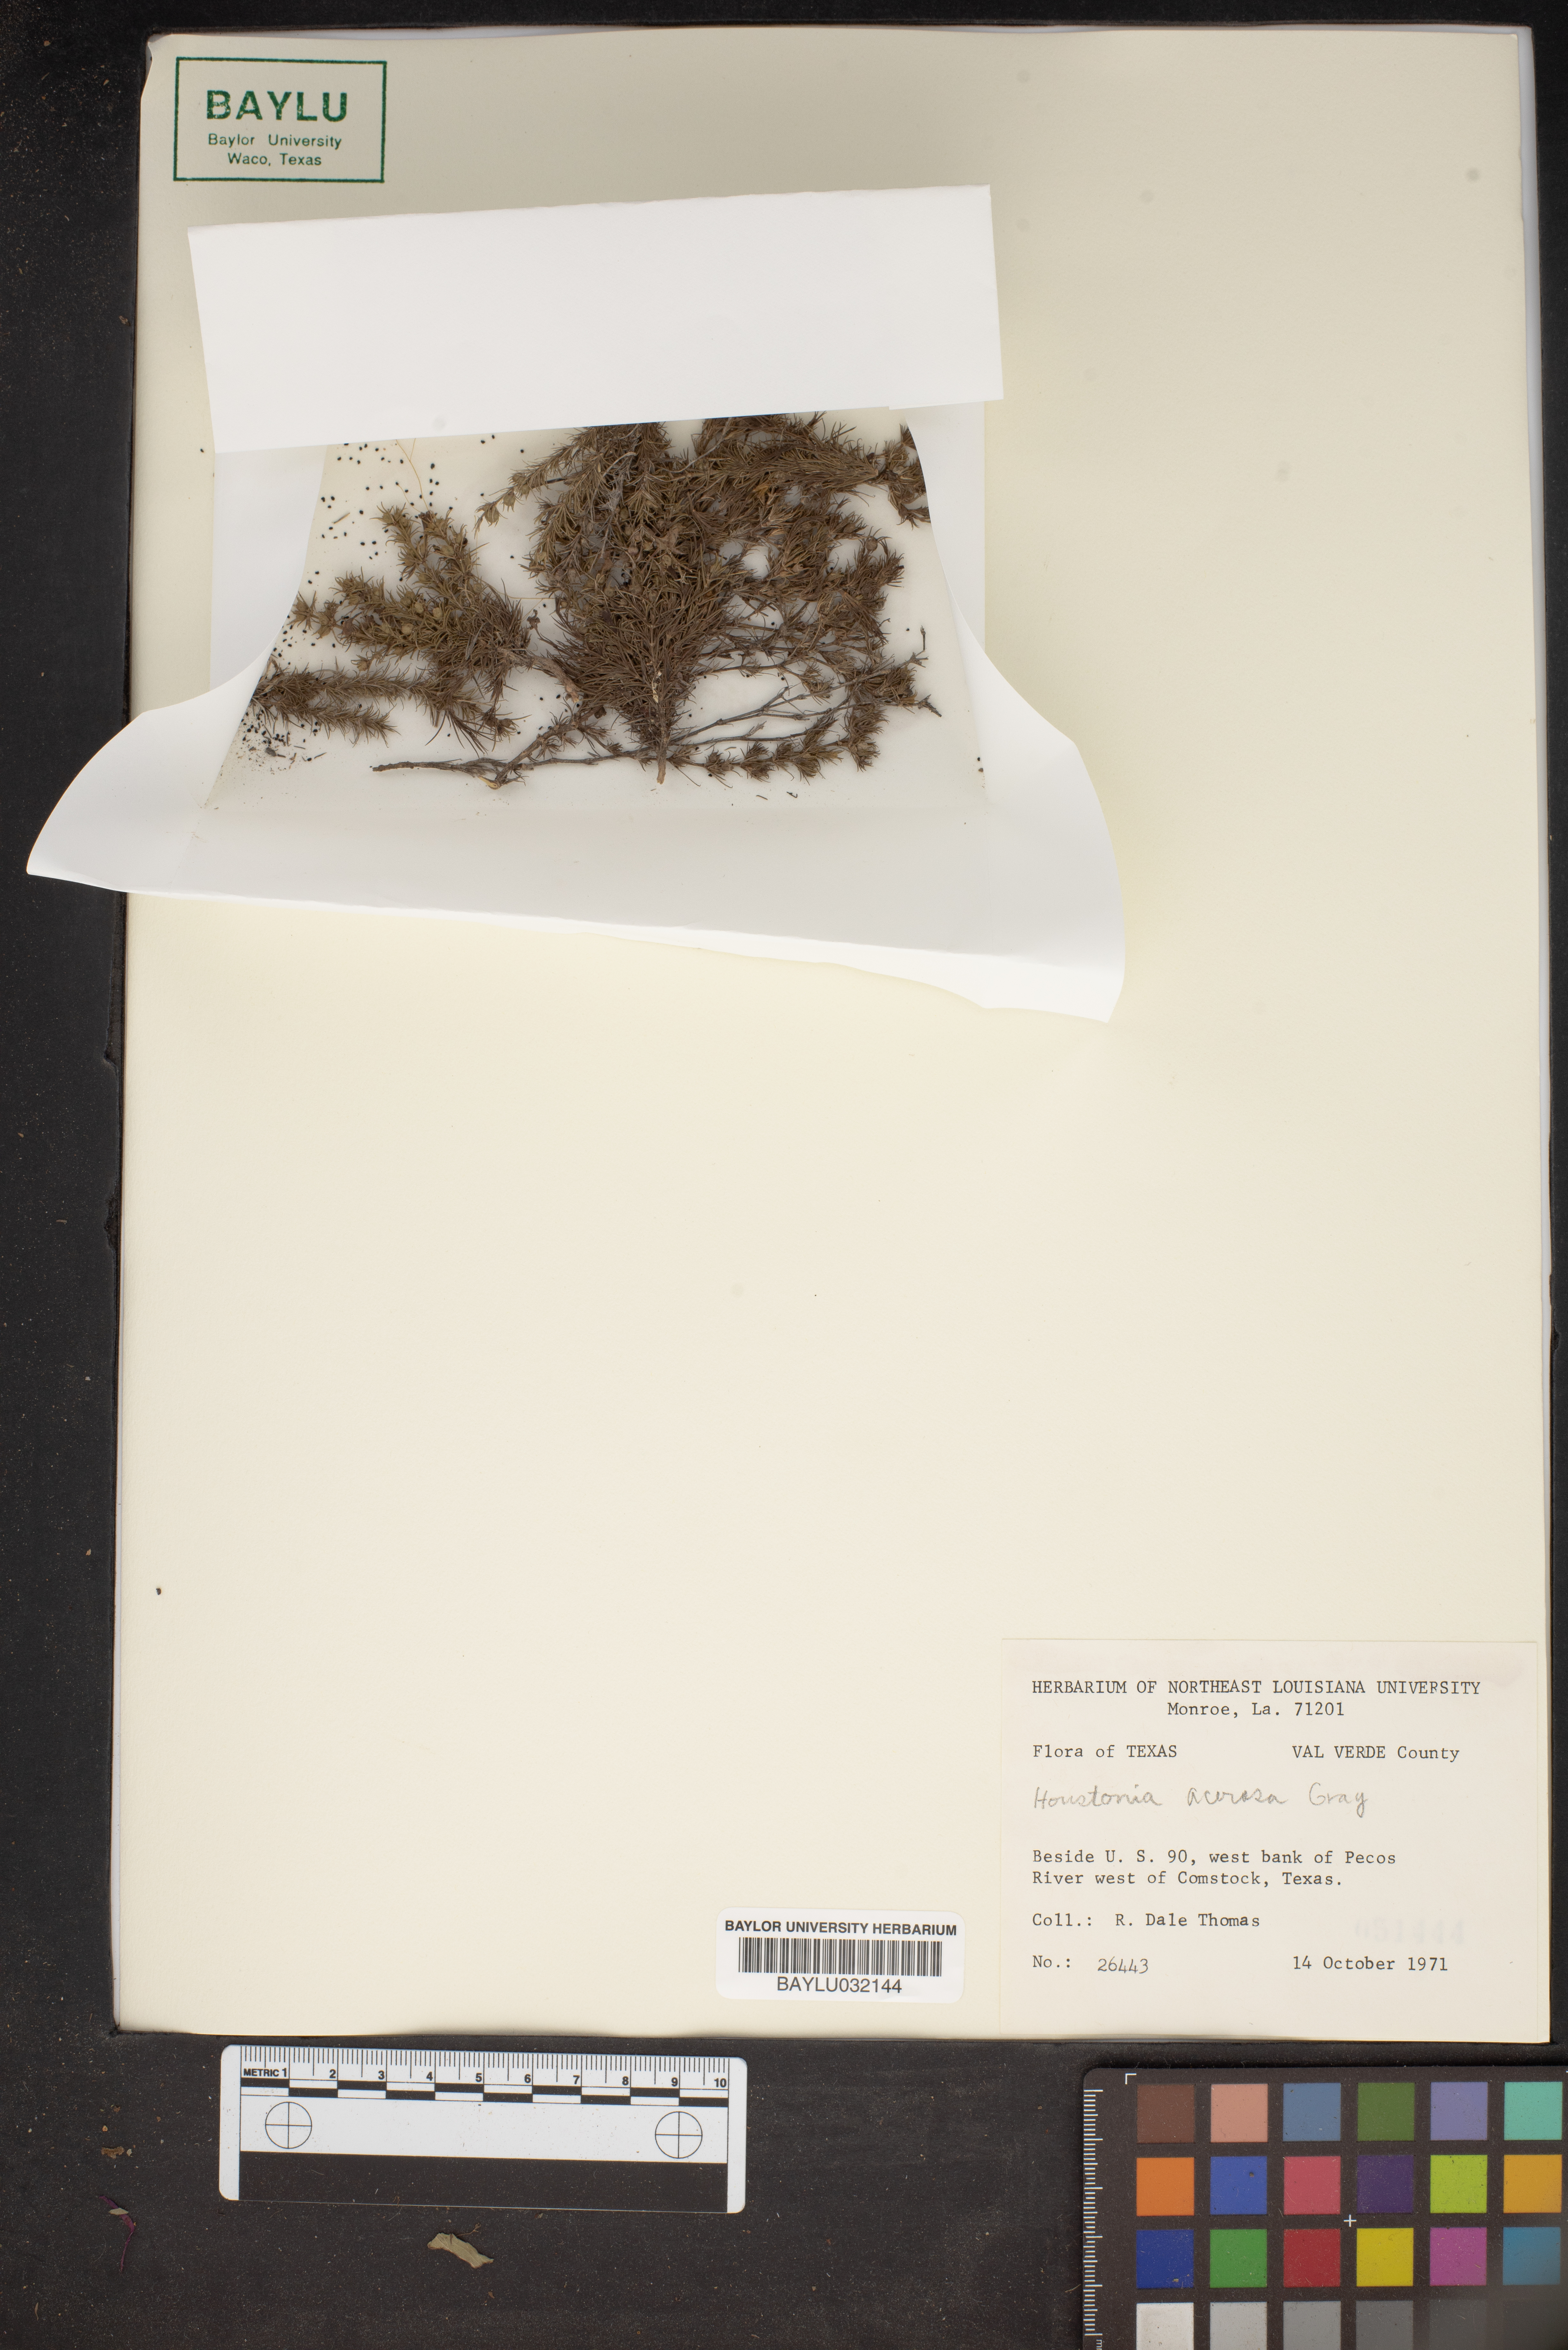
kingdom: Plantae
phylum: Tracheophyta
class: Magnoliopsida
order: Gentianales
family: Rubiaceae
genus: Houstonia
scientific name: Houstonia acerosa
